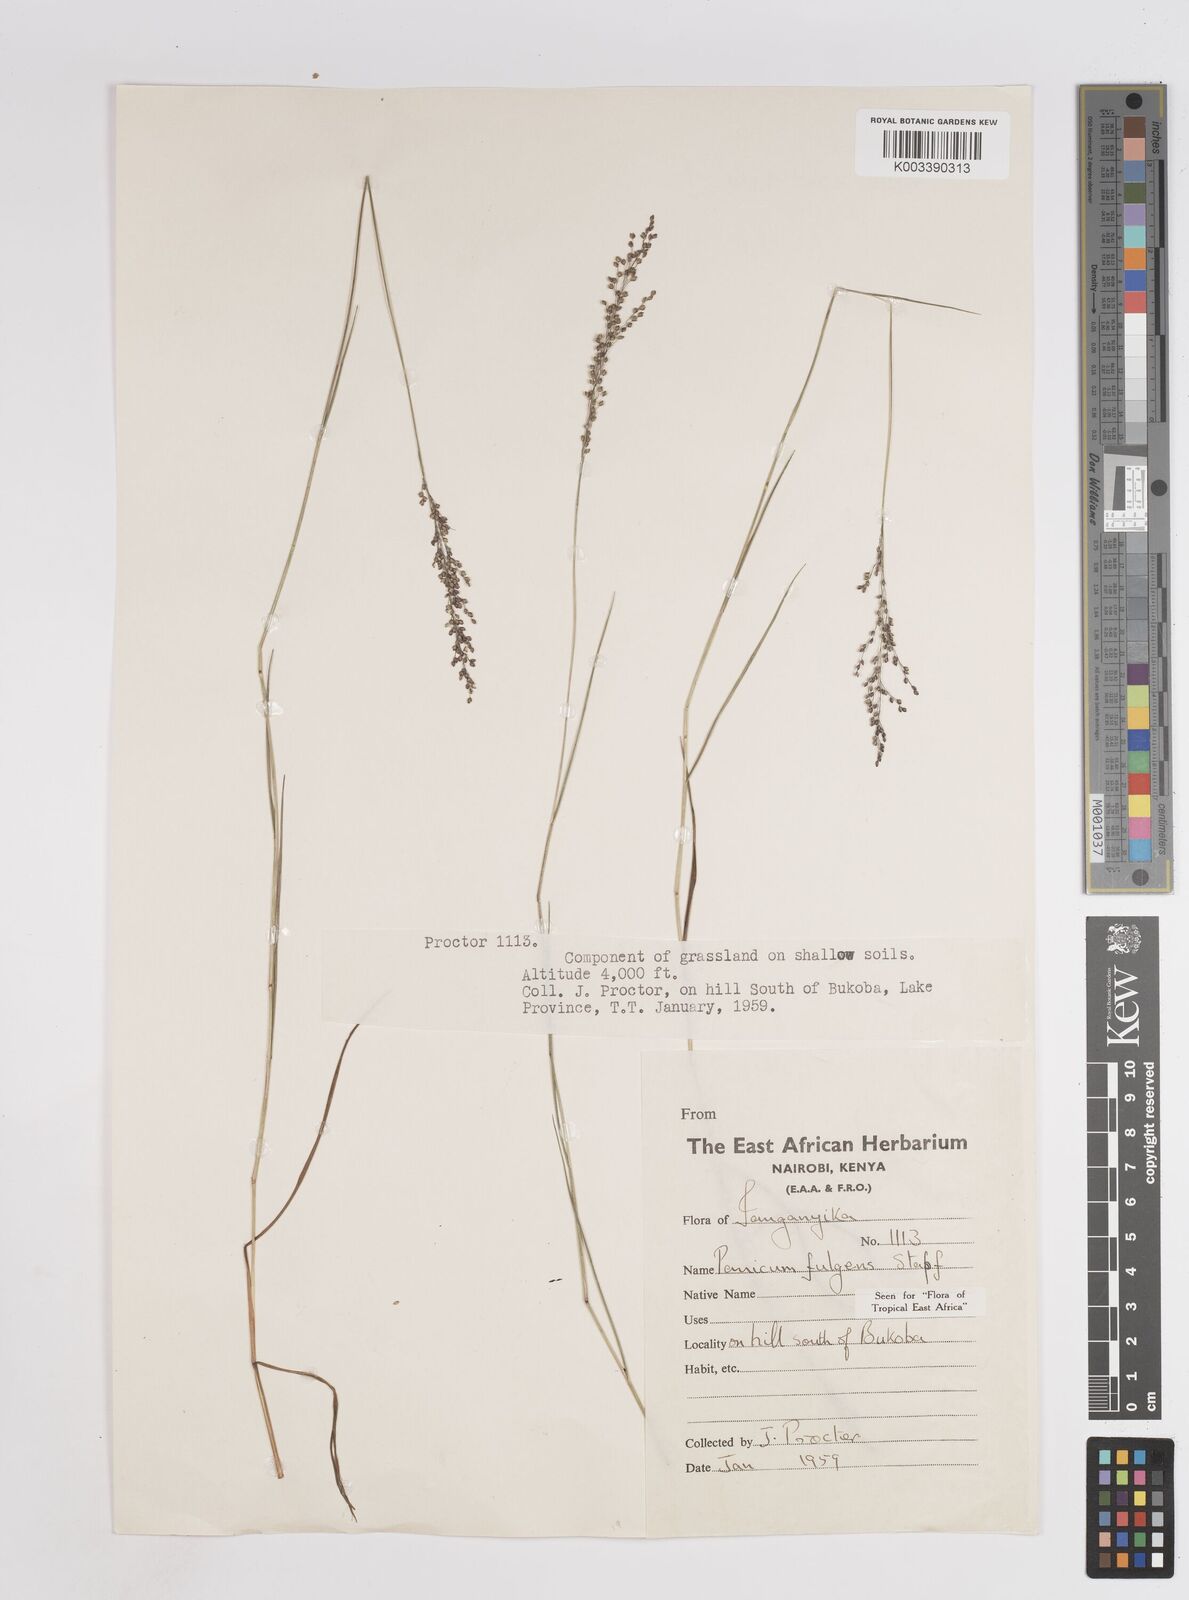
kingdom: Plantae
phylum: Tracheophyta
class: Liliopsida
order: Poales
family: Poaceae
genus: Trichanthecium
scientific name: Trichanthecium nervatum
